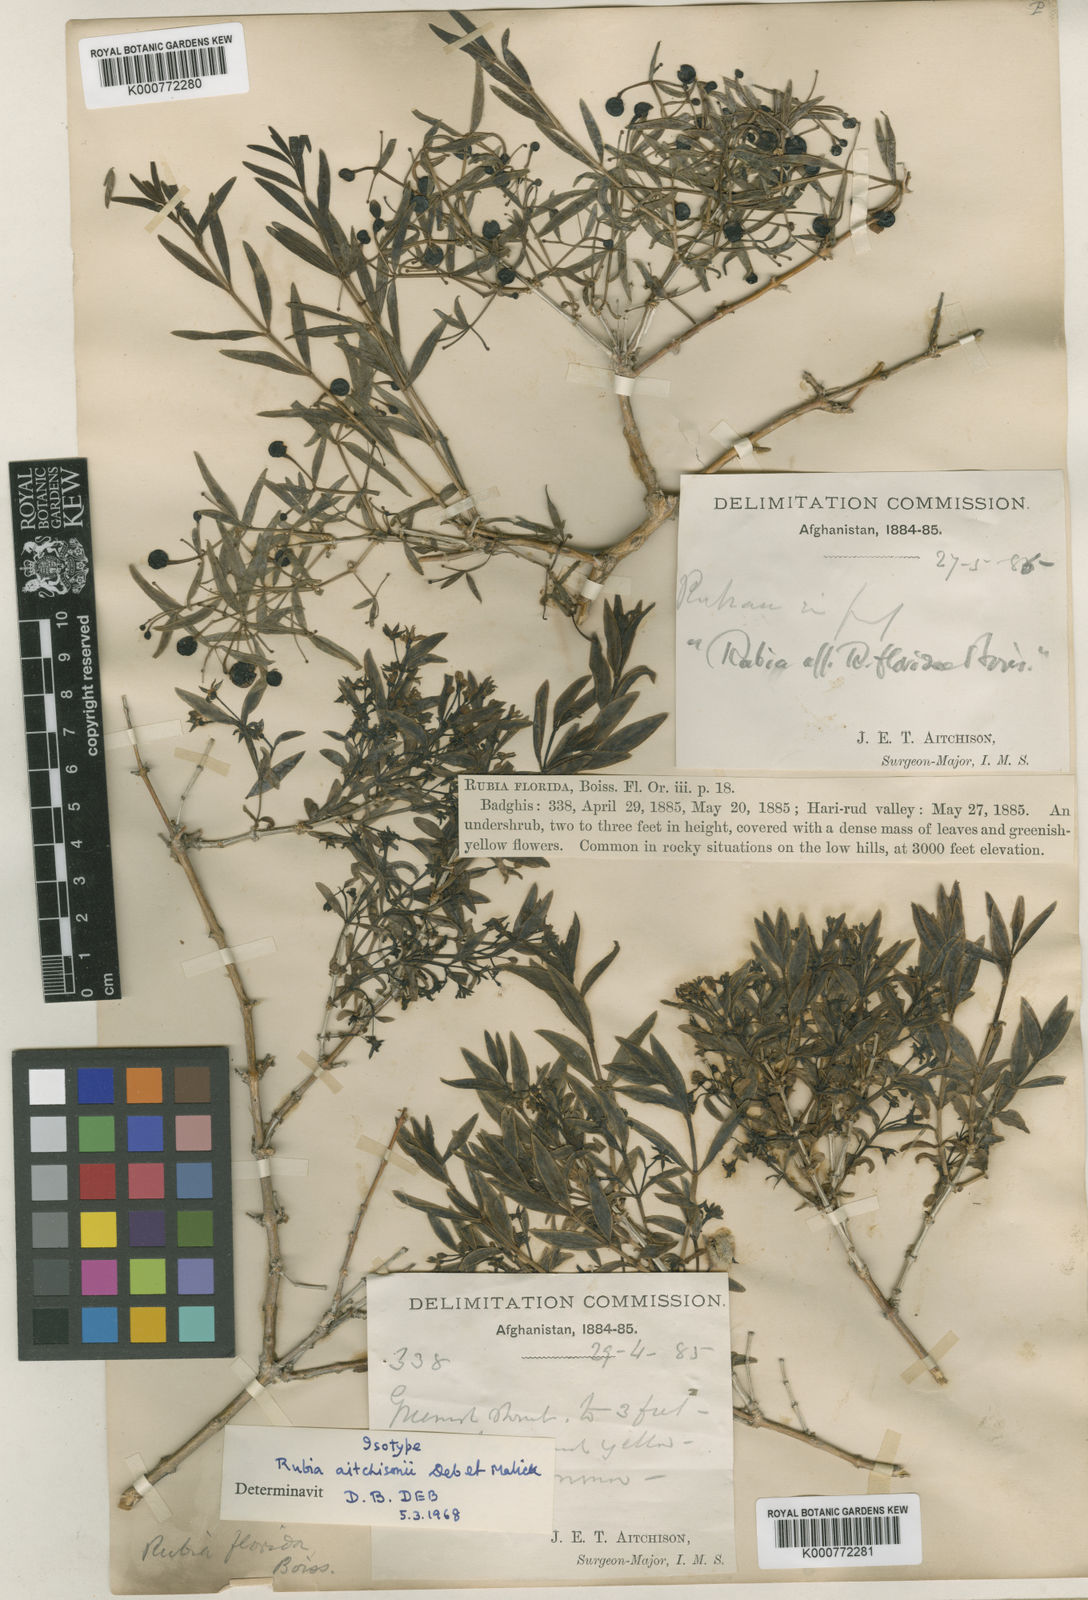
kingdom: Plantae
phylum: Tracheophyta
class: Magnoliopsida
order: Gentianales
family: Rubiaceae
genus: Rubia
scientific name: Rubia aitchisonii
